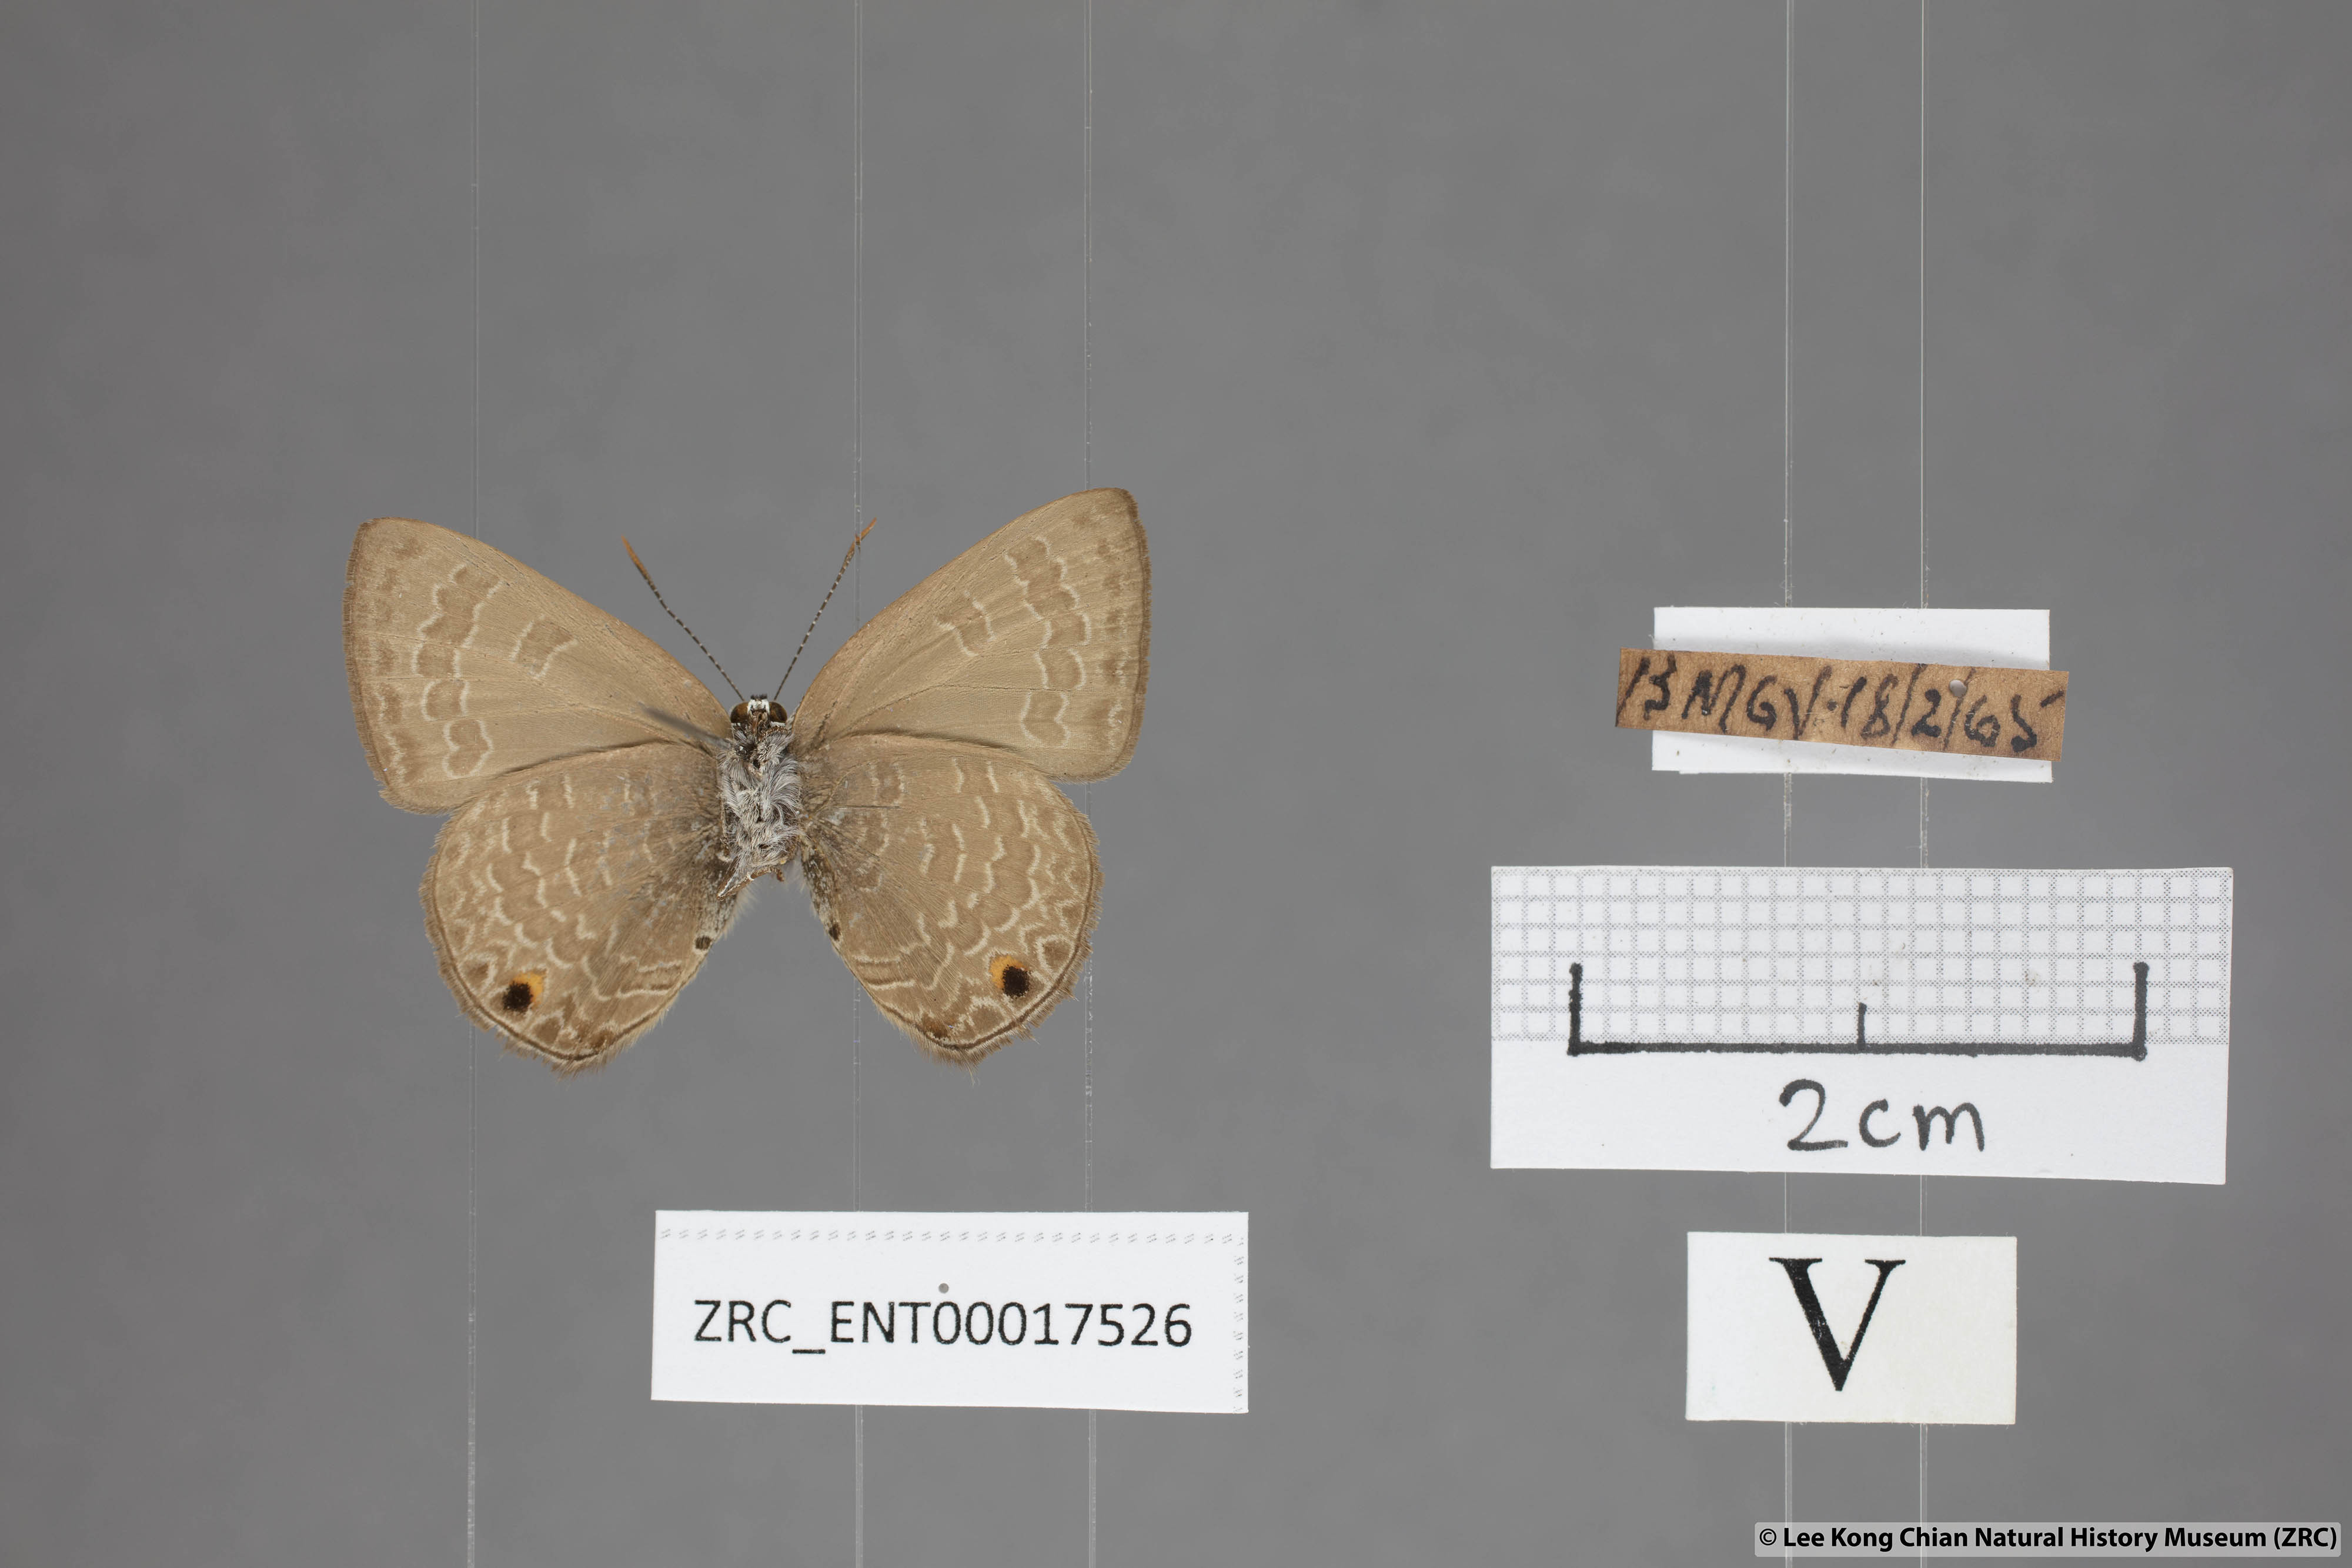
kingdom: Animalia
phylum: Arthropoda
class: Insecta
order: Lepidoptera
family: Lycaenidae
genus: Anthene
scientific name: Anthene emolus
